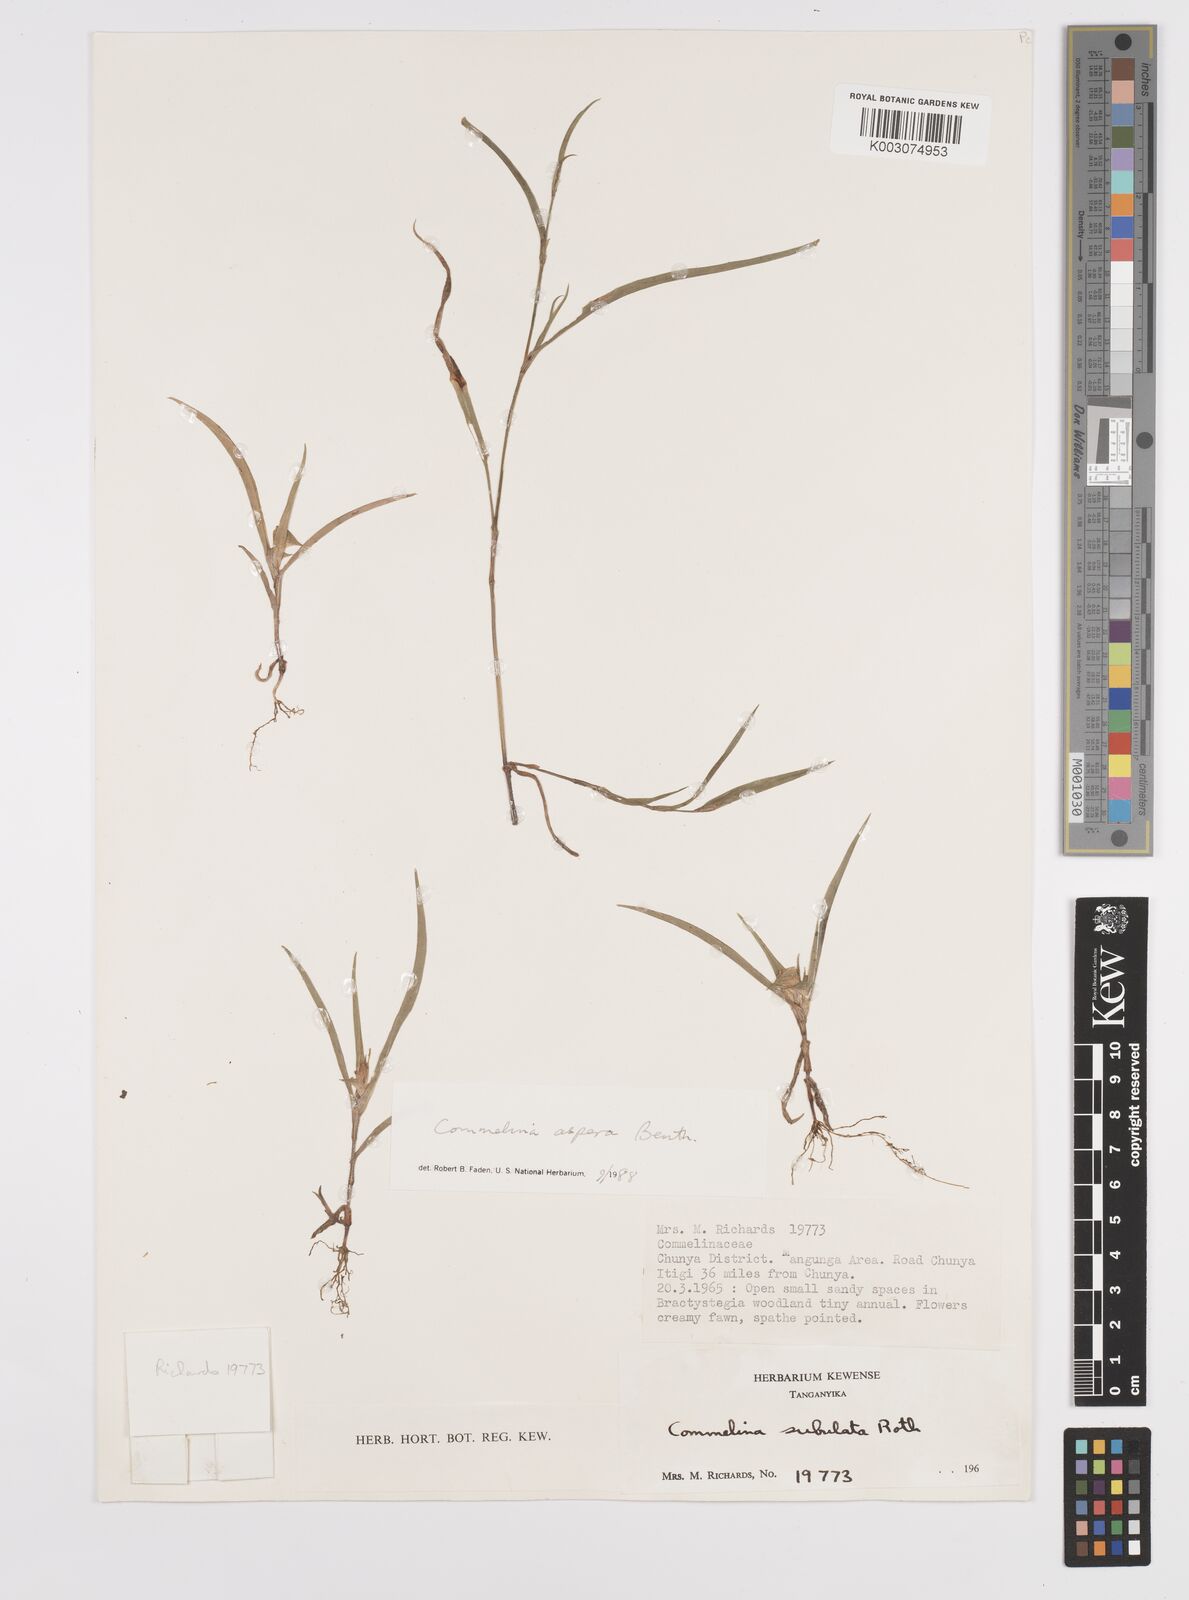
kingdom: Plantae
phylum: Tracheophyta
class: Liliopsida
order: Commelinales
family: Commelinaceae
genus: Commelina
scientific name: Commelina aspera
